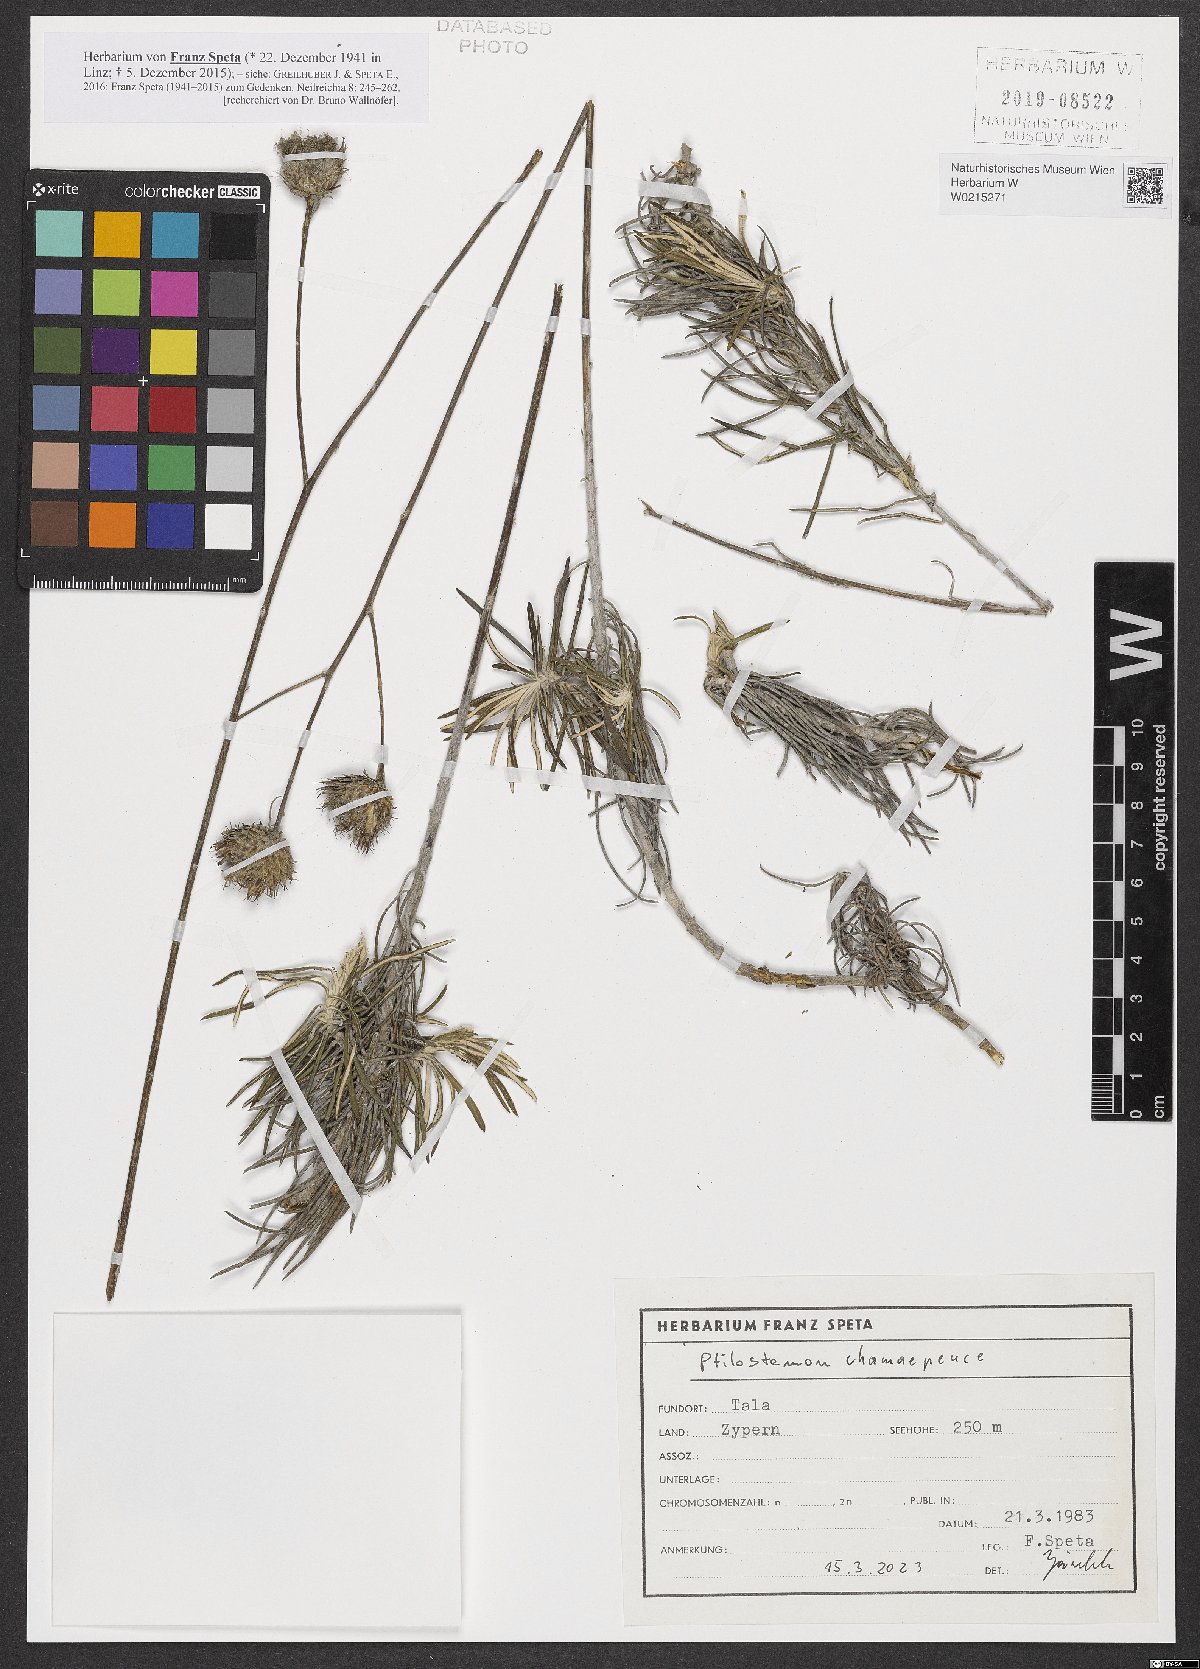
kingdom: Plantae
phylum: Tracheophyta
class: Magnoliopsida
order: Asterales
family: Asteraceae
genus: Ptilostemon
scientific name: Ptilostemon chamaepeuce
